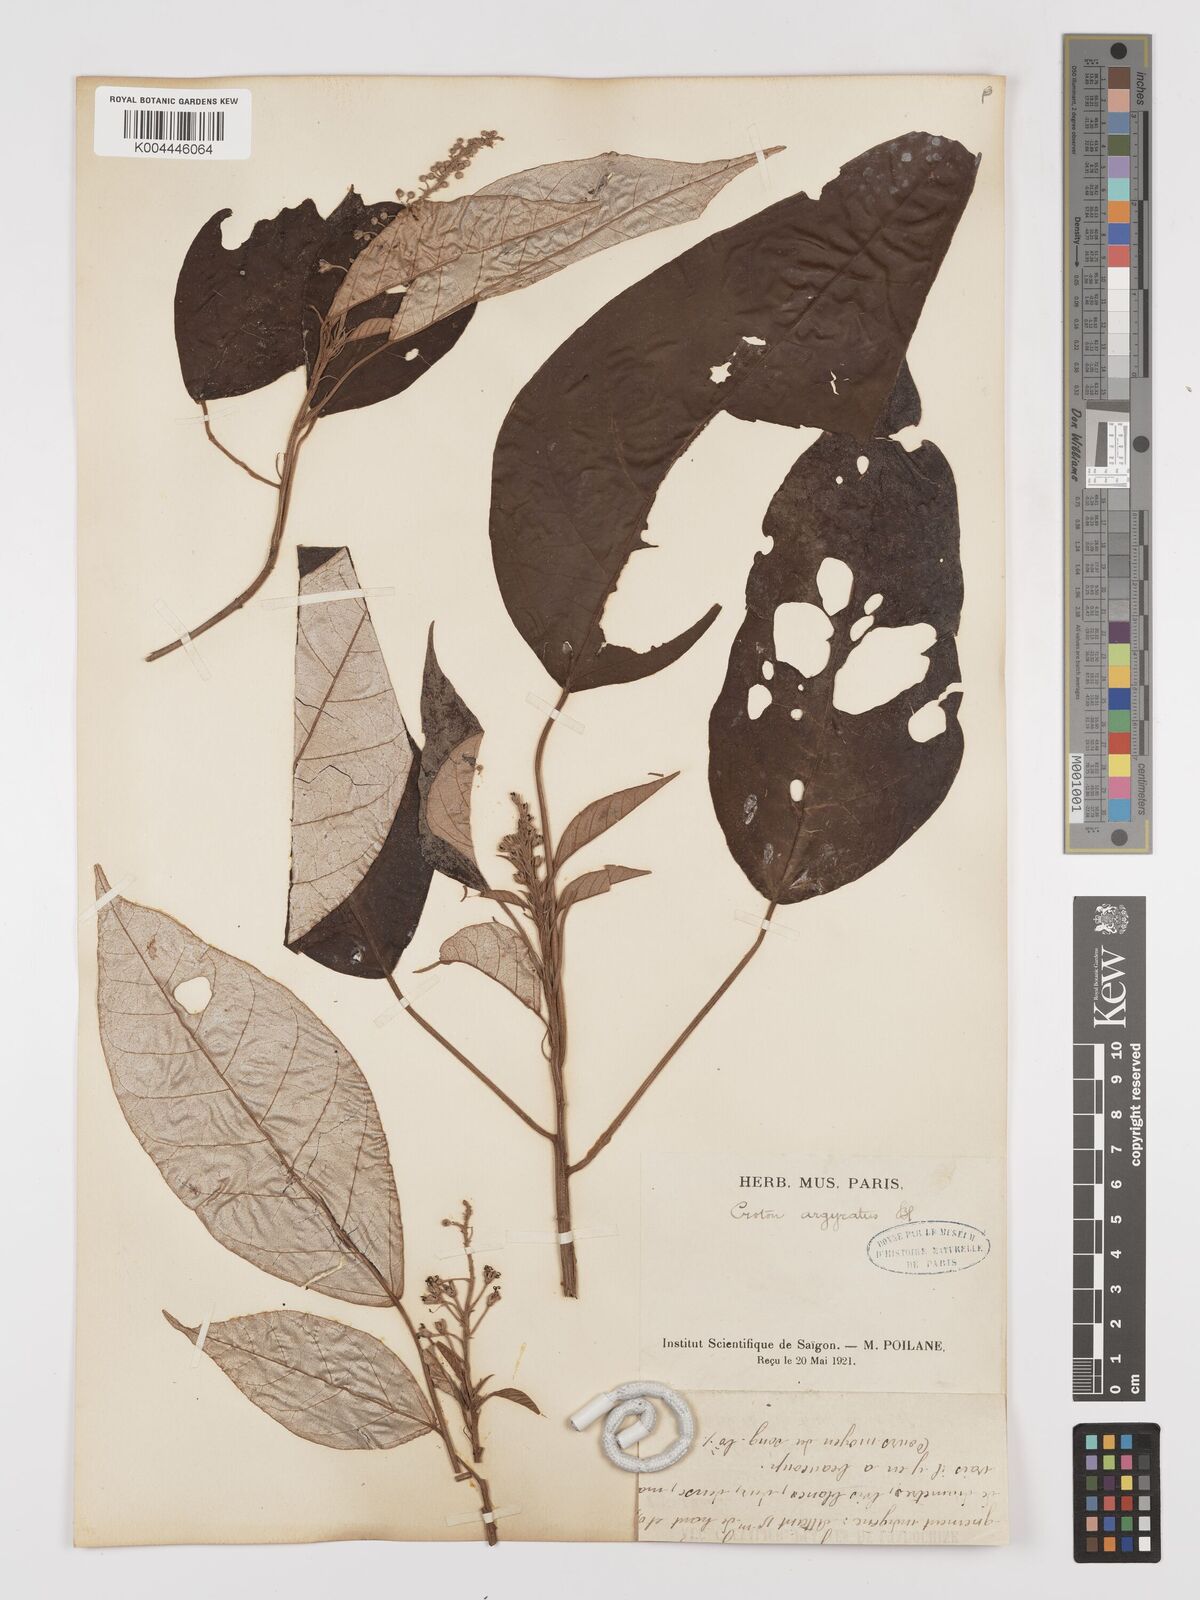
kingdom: Plantae
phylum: Tracheophyta
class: Magnoliopsida
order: Malpighiales
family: Euphorbiaceae
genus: Croton
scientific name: Croton argyratus
